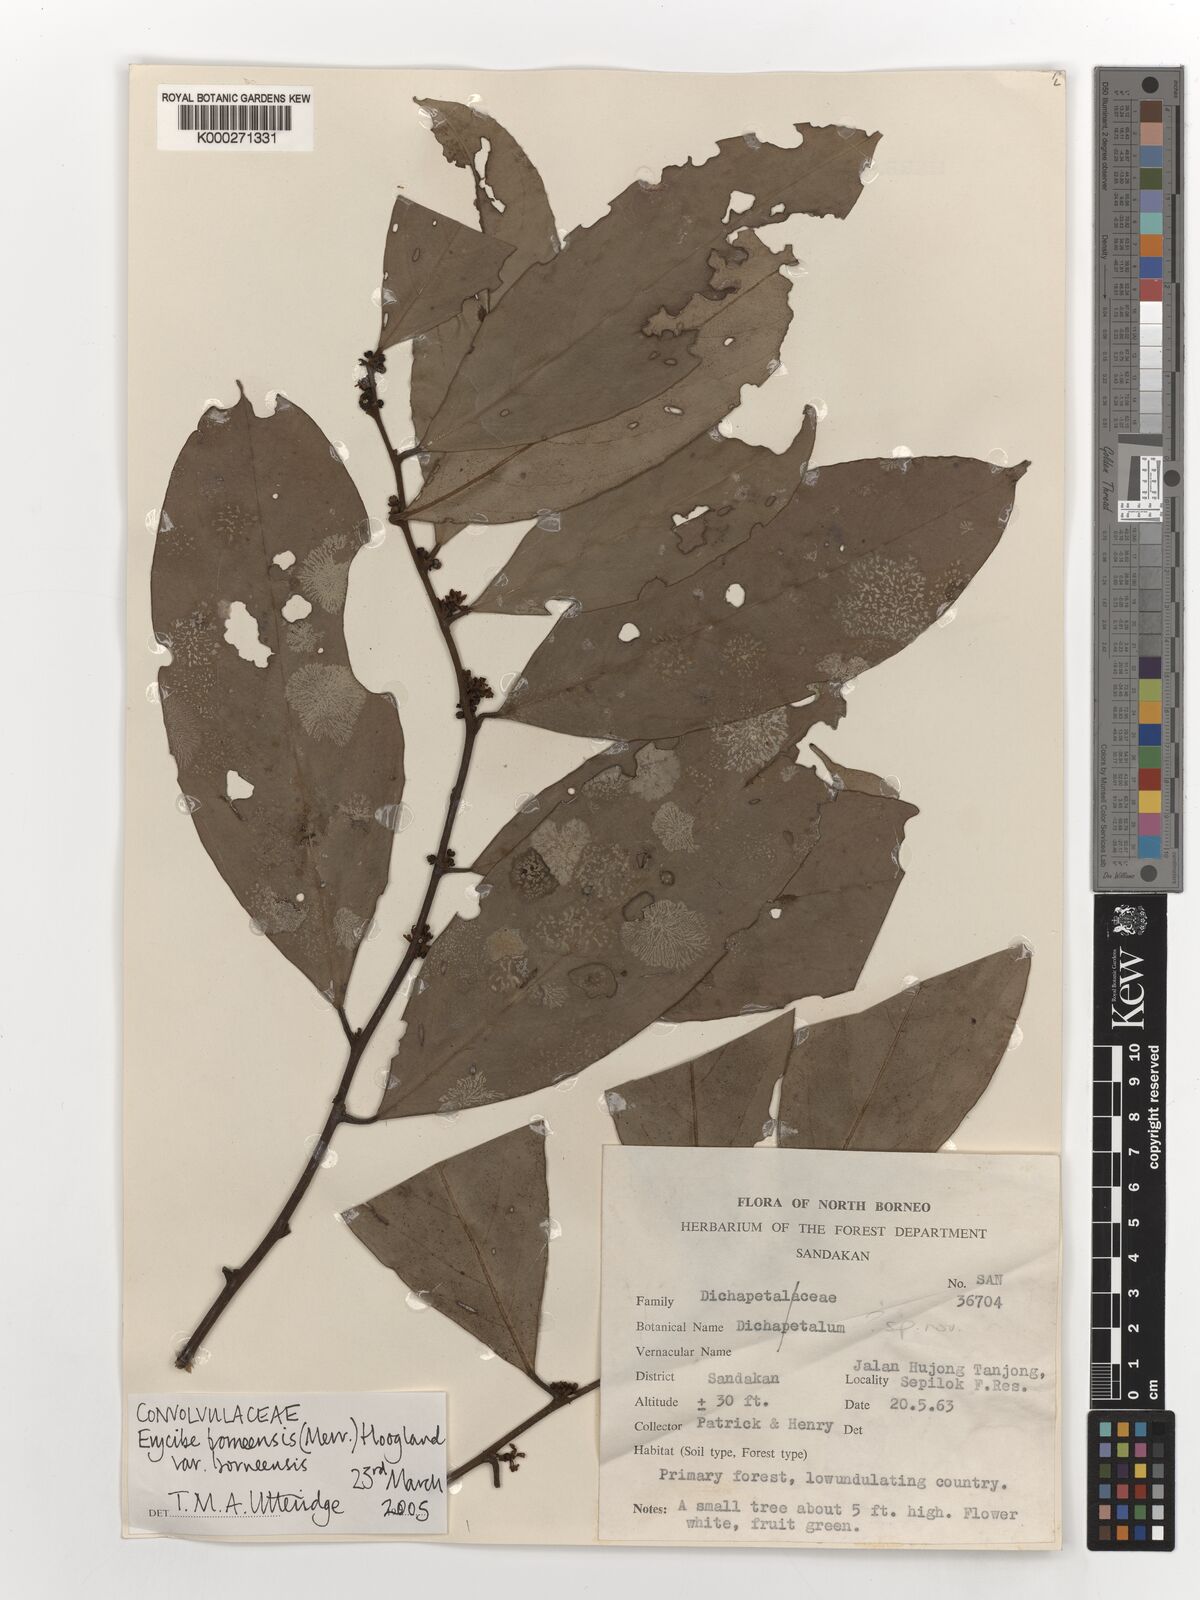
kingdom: Plantae
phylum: Tracheophyta
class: Magnoliopsida
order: Solanales
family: Convolvulaceae
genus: Erycibe
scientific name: Erycibe borneensis
